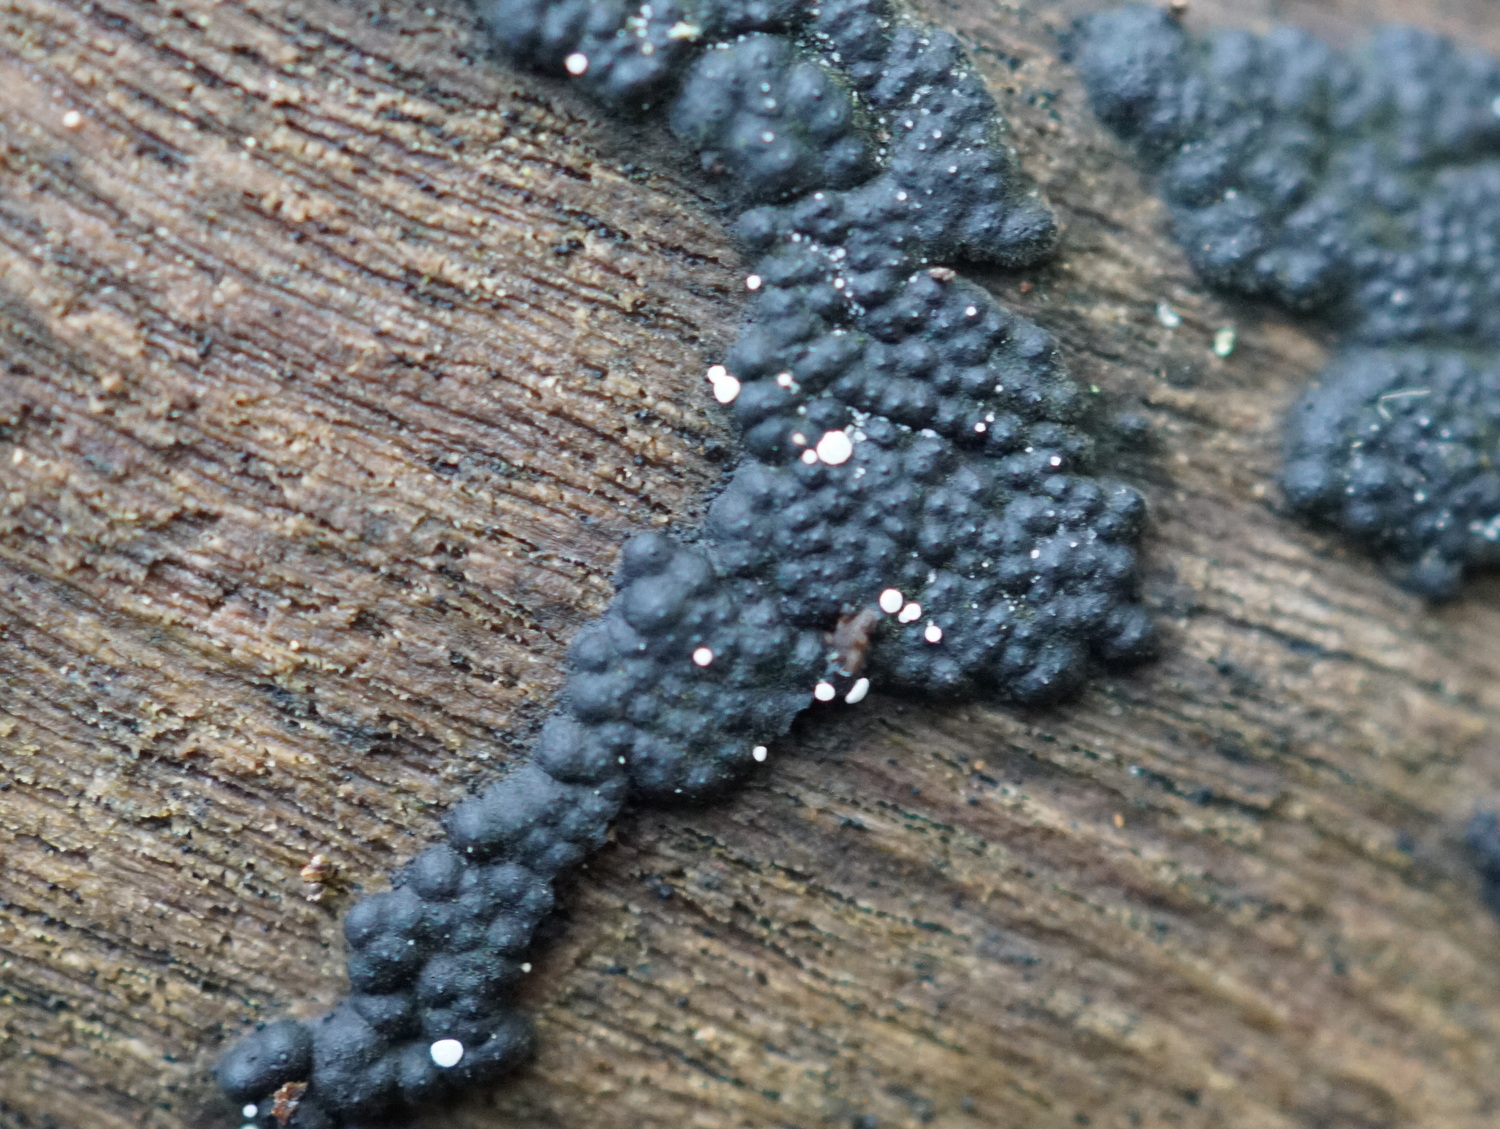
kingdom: Fungi
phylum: Ascomycota
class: Leotiomycetes
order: Helotiales
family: Hyaloscyphaceae
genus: Polydesmia
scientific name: Polydesmia pruinosa
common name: dunskive
